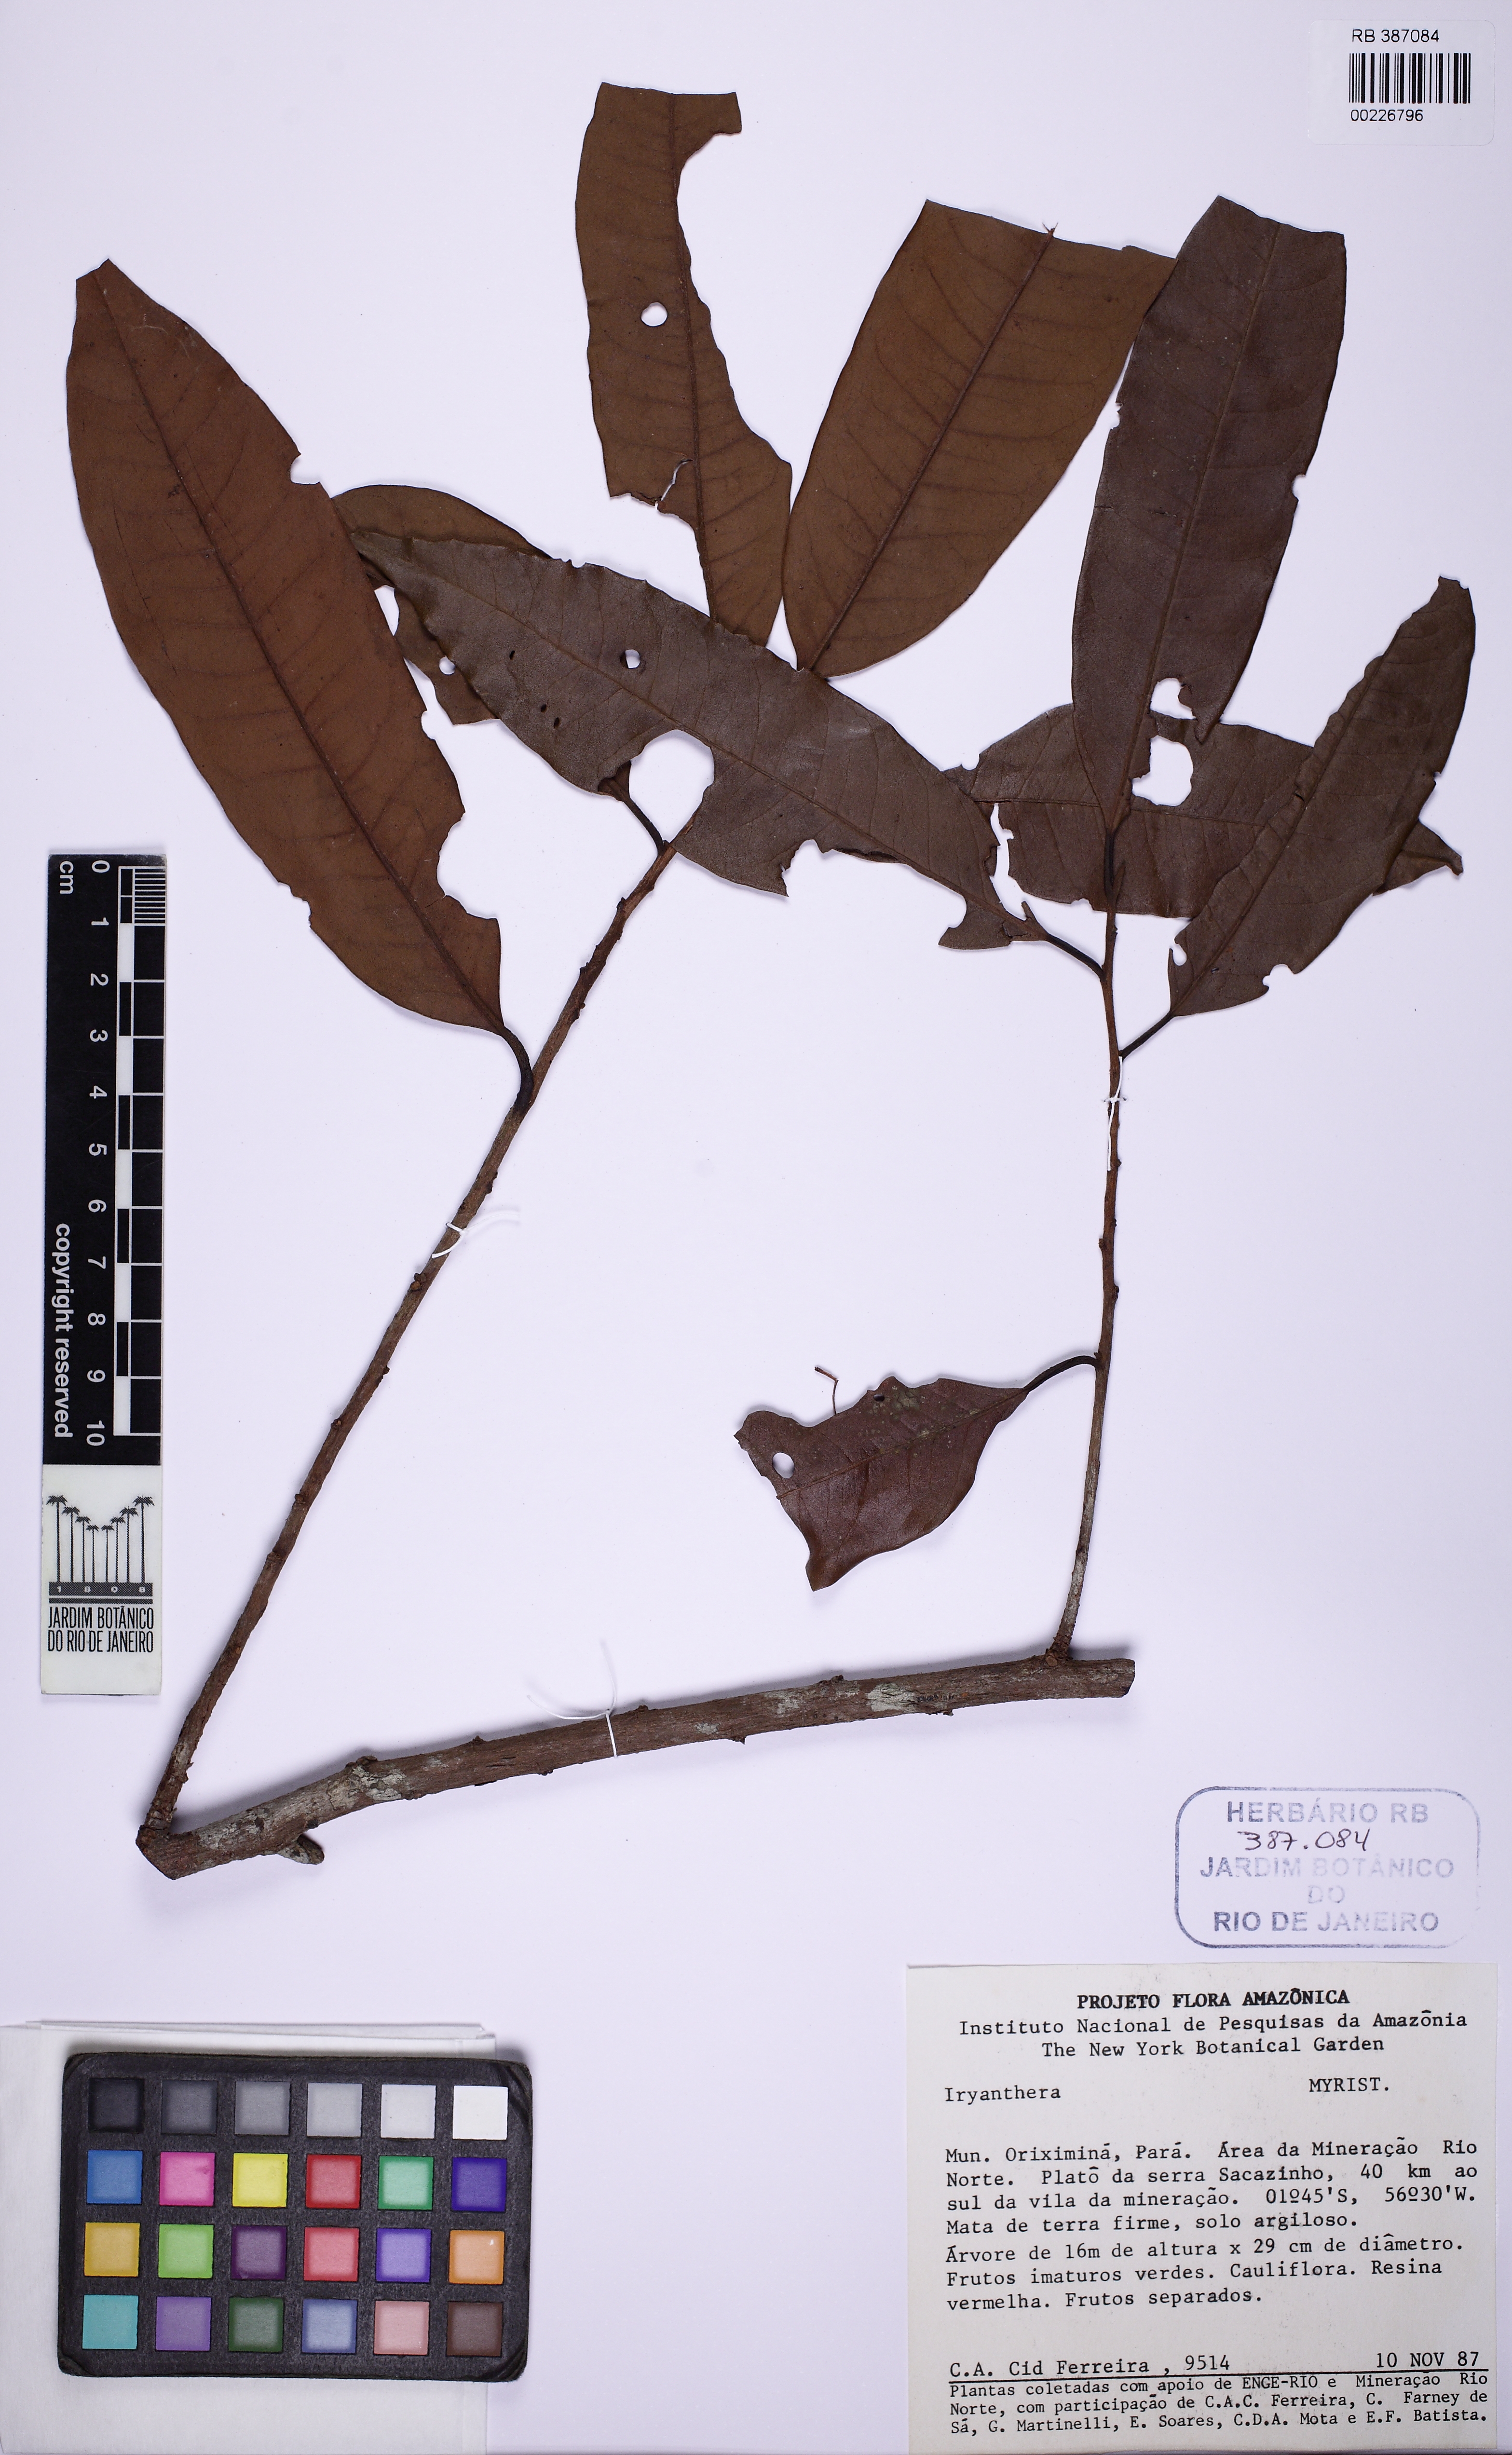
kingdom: Plantae
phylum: Tracheophyta
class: Magnoliopsida
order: Magnoliales
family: Myristicaceae
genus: Iryanthera
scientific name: Iryanthera
